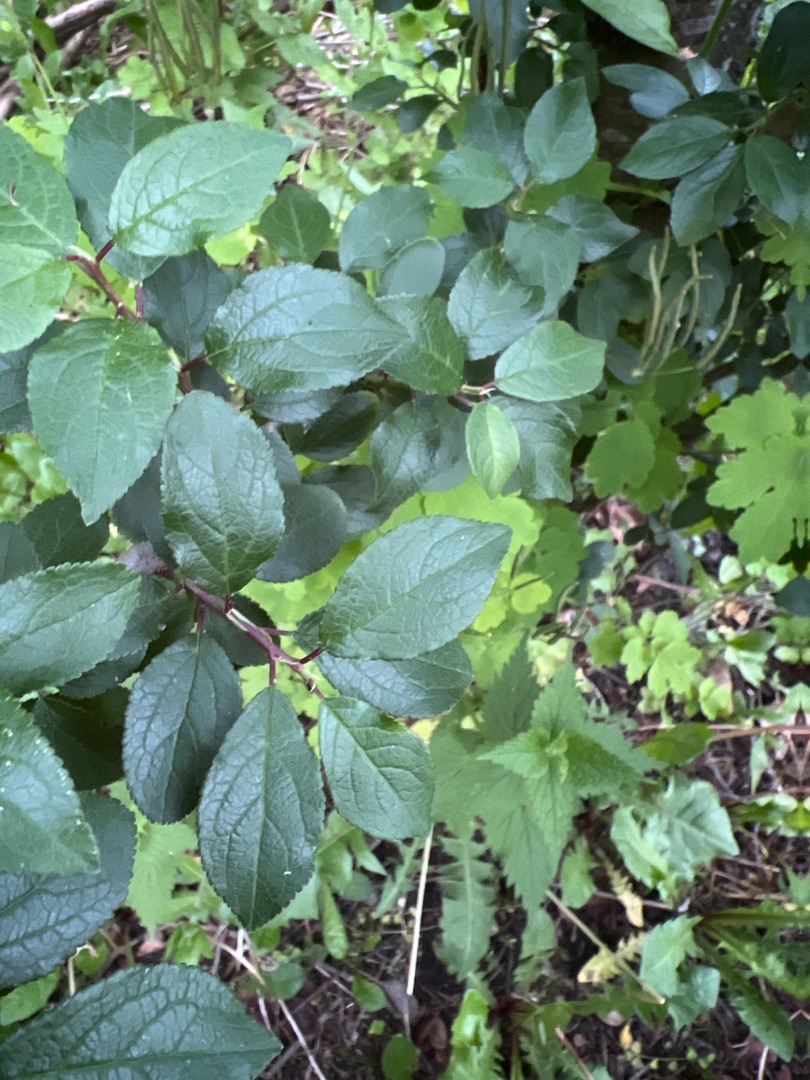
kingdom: Plantae
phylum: Tracheophyta
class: Magnoliopsida
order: Rosales
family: Rosaceae
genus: Prunus
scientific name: Prunus
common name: Blommeslægten
